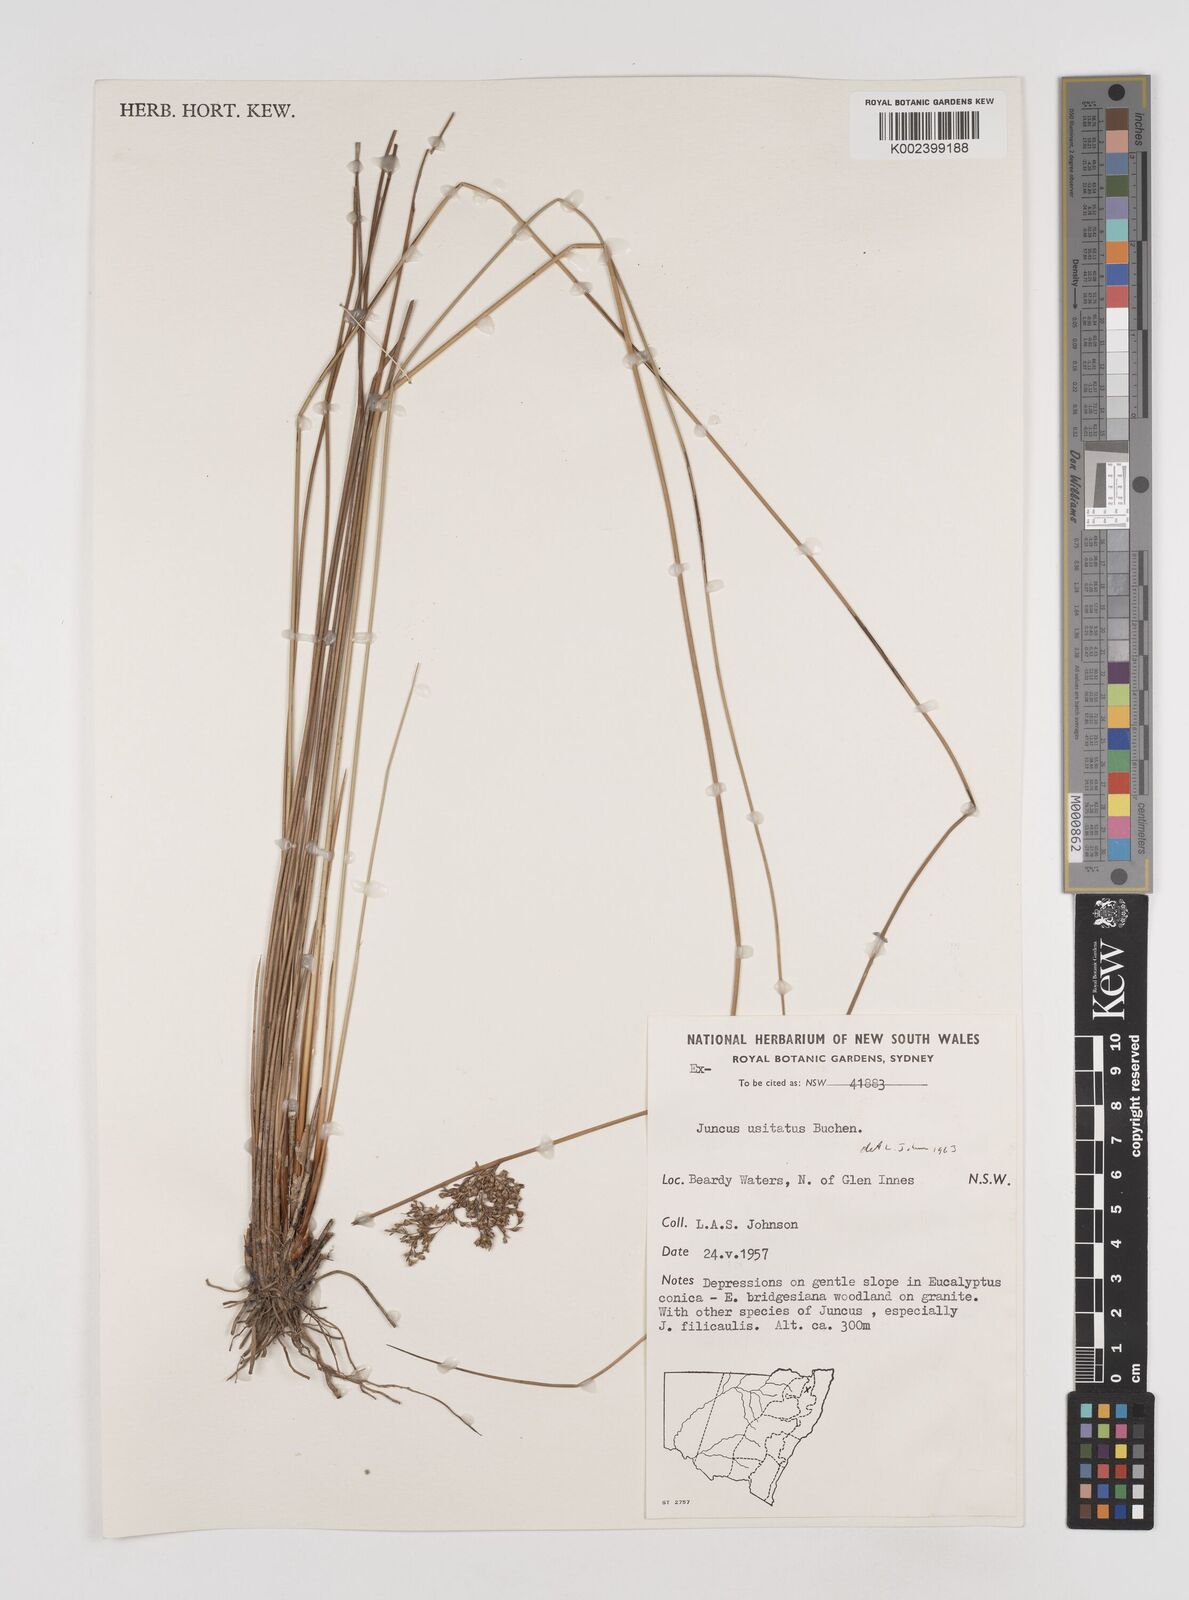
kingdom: Plantae
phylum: Tracheophyta
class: Liliopsida
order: Poales
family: Juncaceae
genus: Juncus
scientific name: Juncus usitatus
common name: Rush
